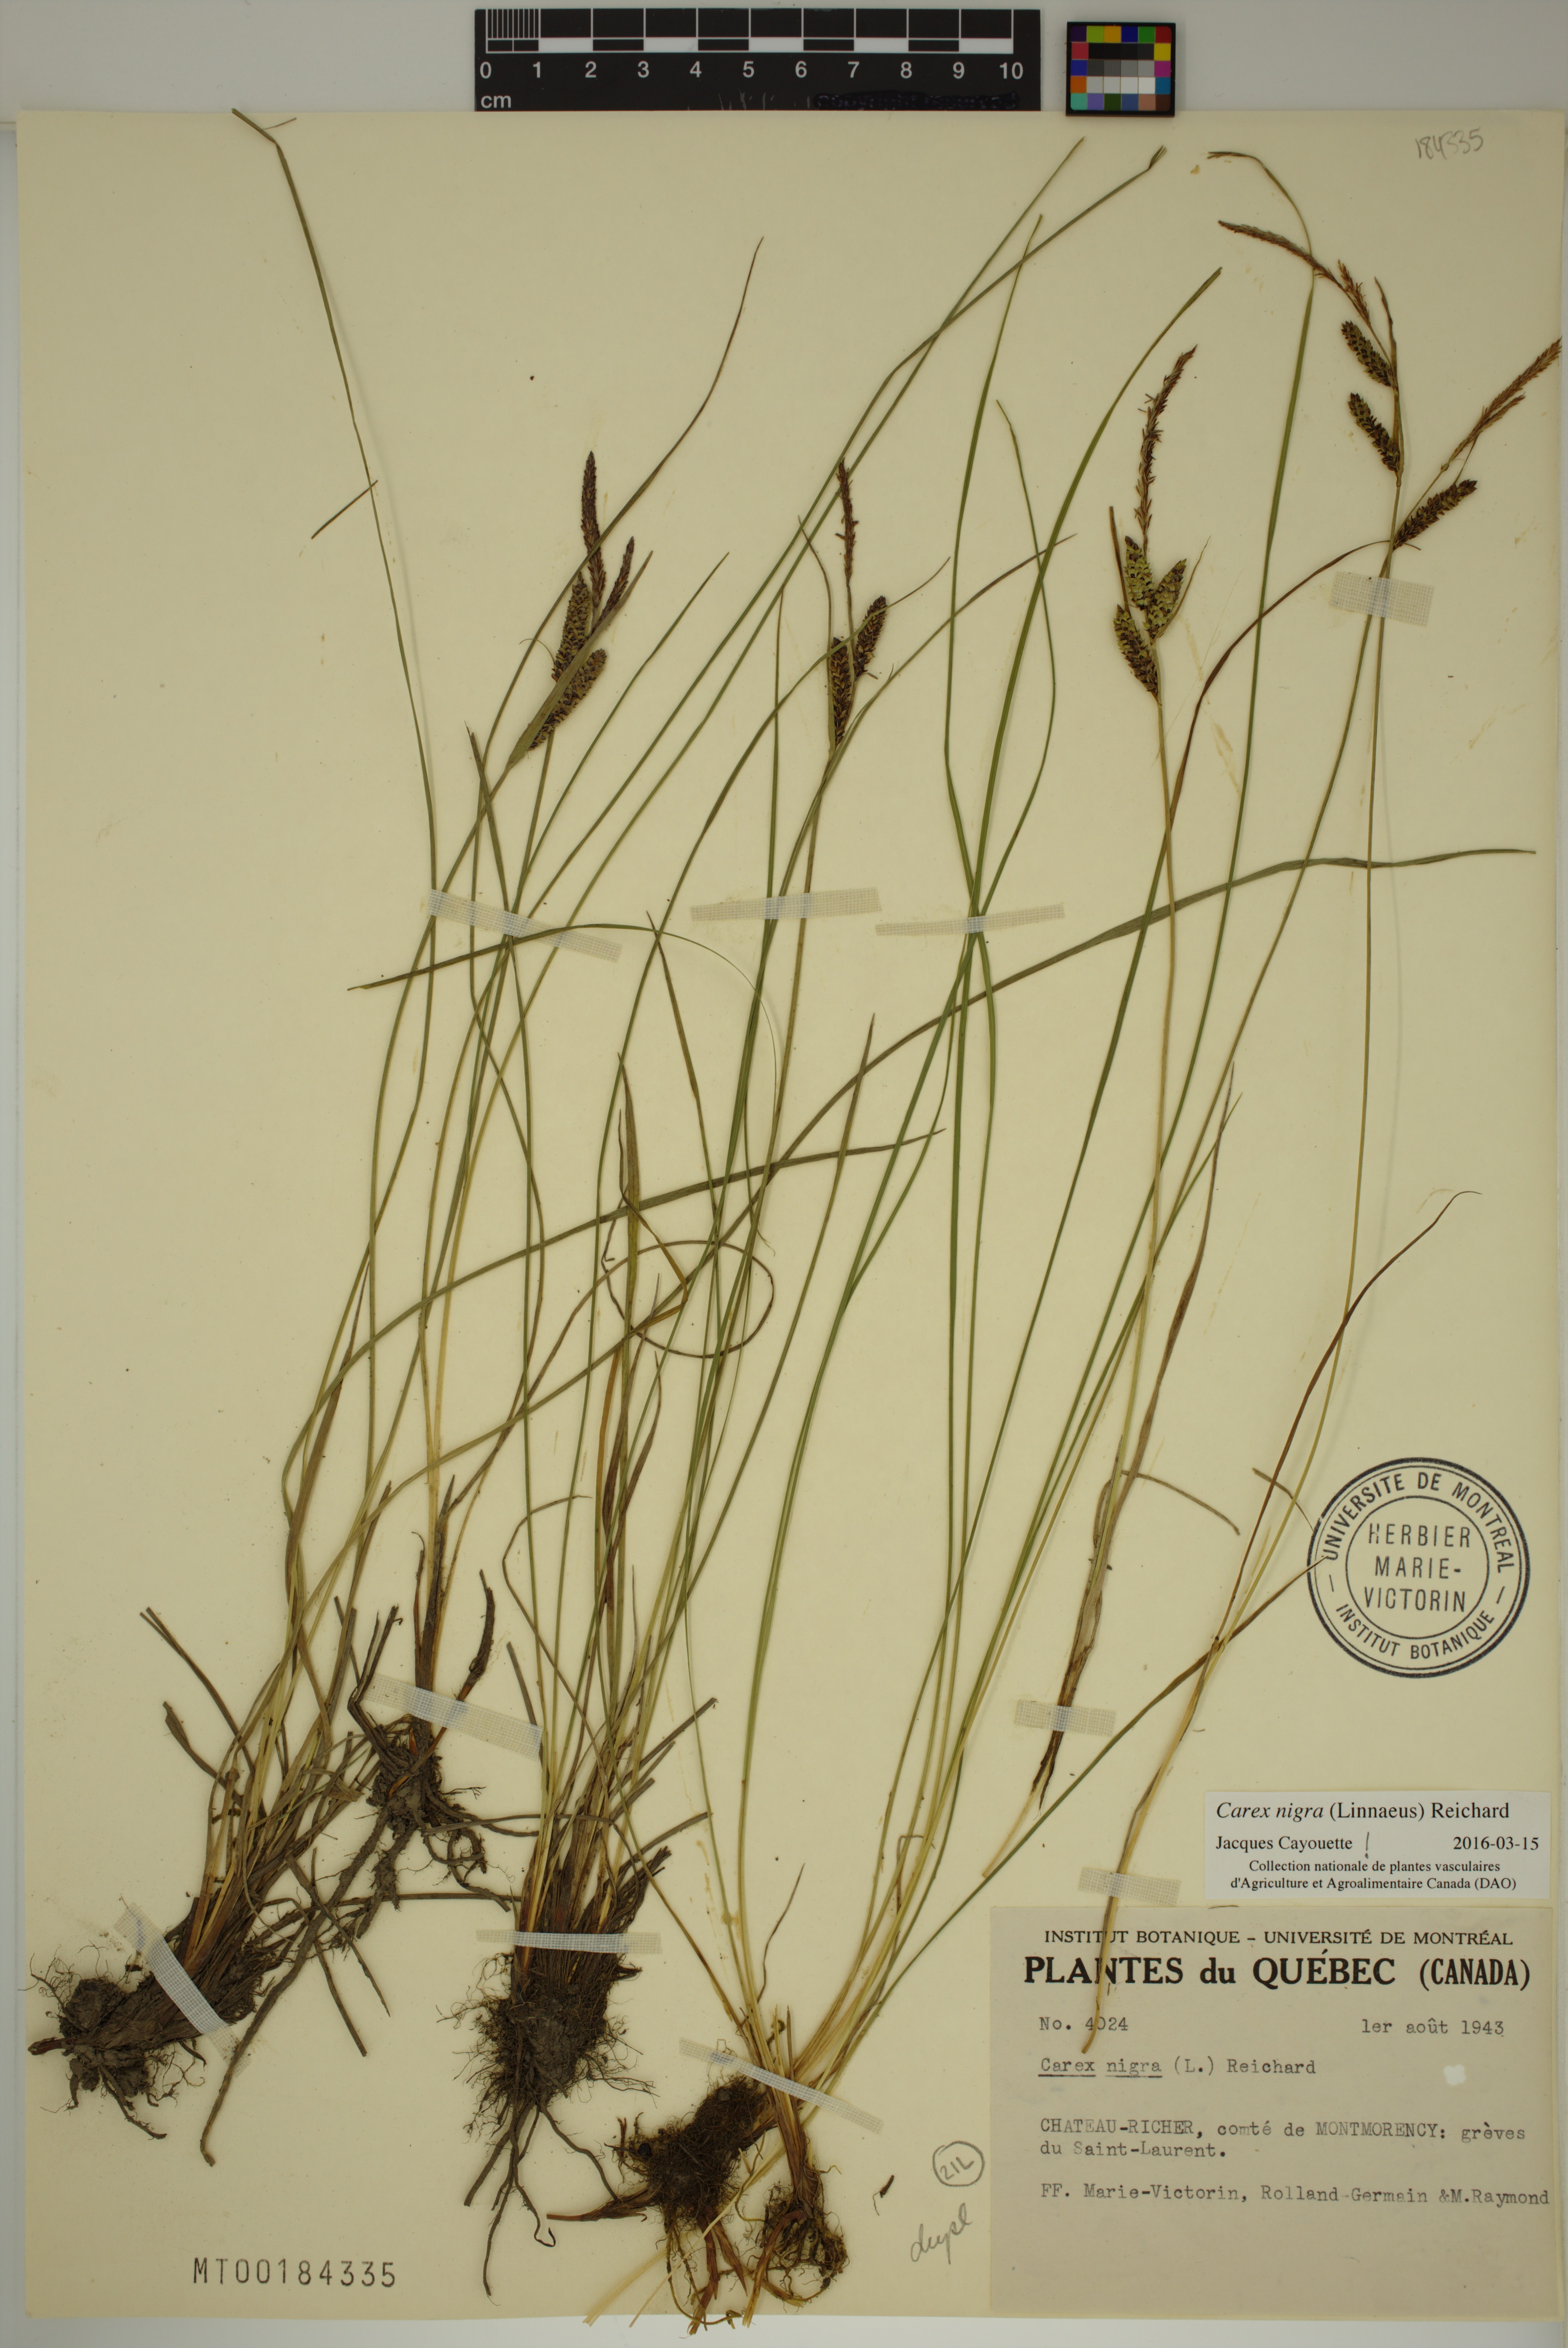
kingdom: Plantae
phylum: Tracheophyta
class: Liliopsida
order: Poales
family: Cyperaceae
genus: Carex
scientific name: Carex nigra
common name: Common sedge
